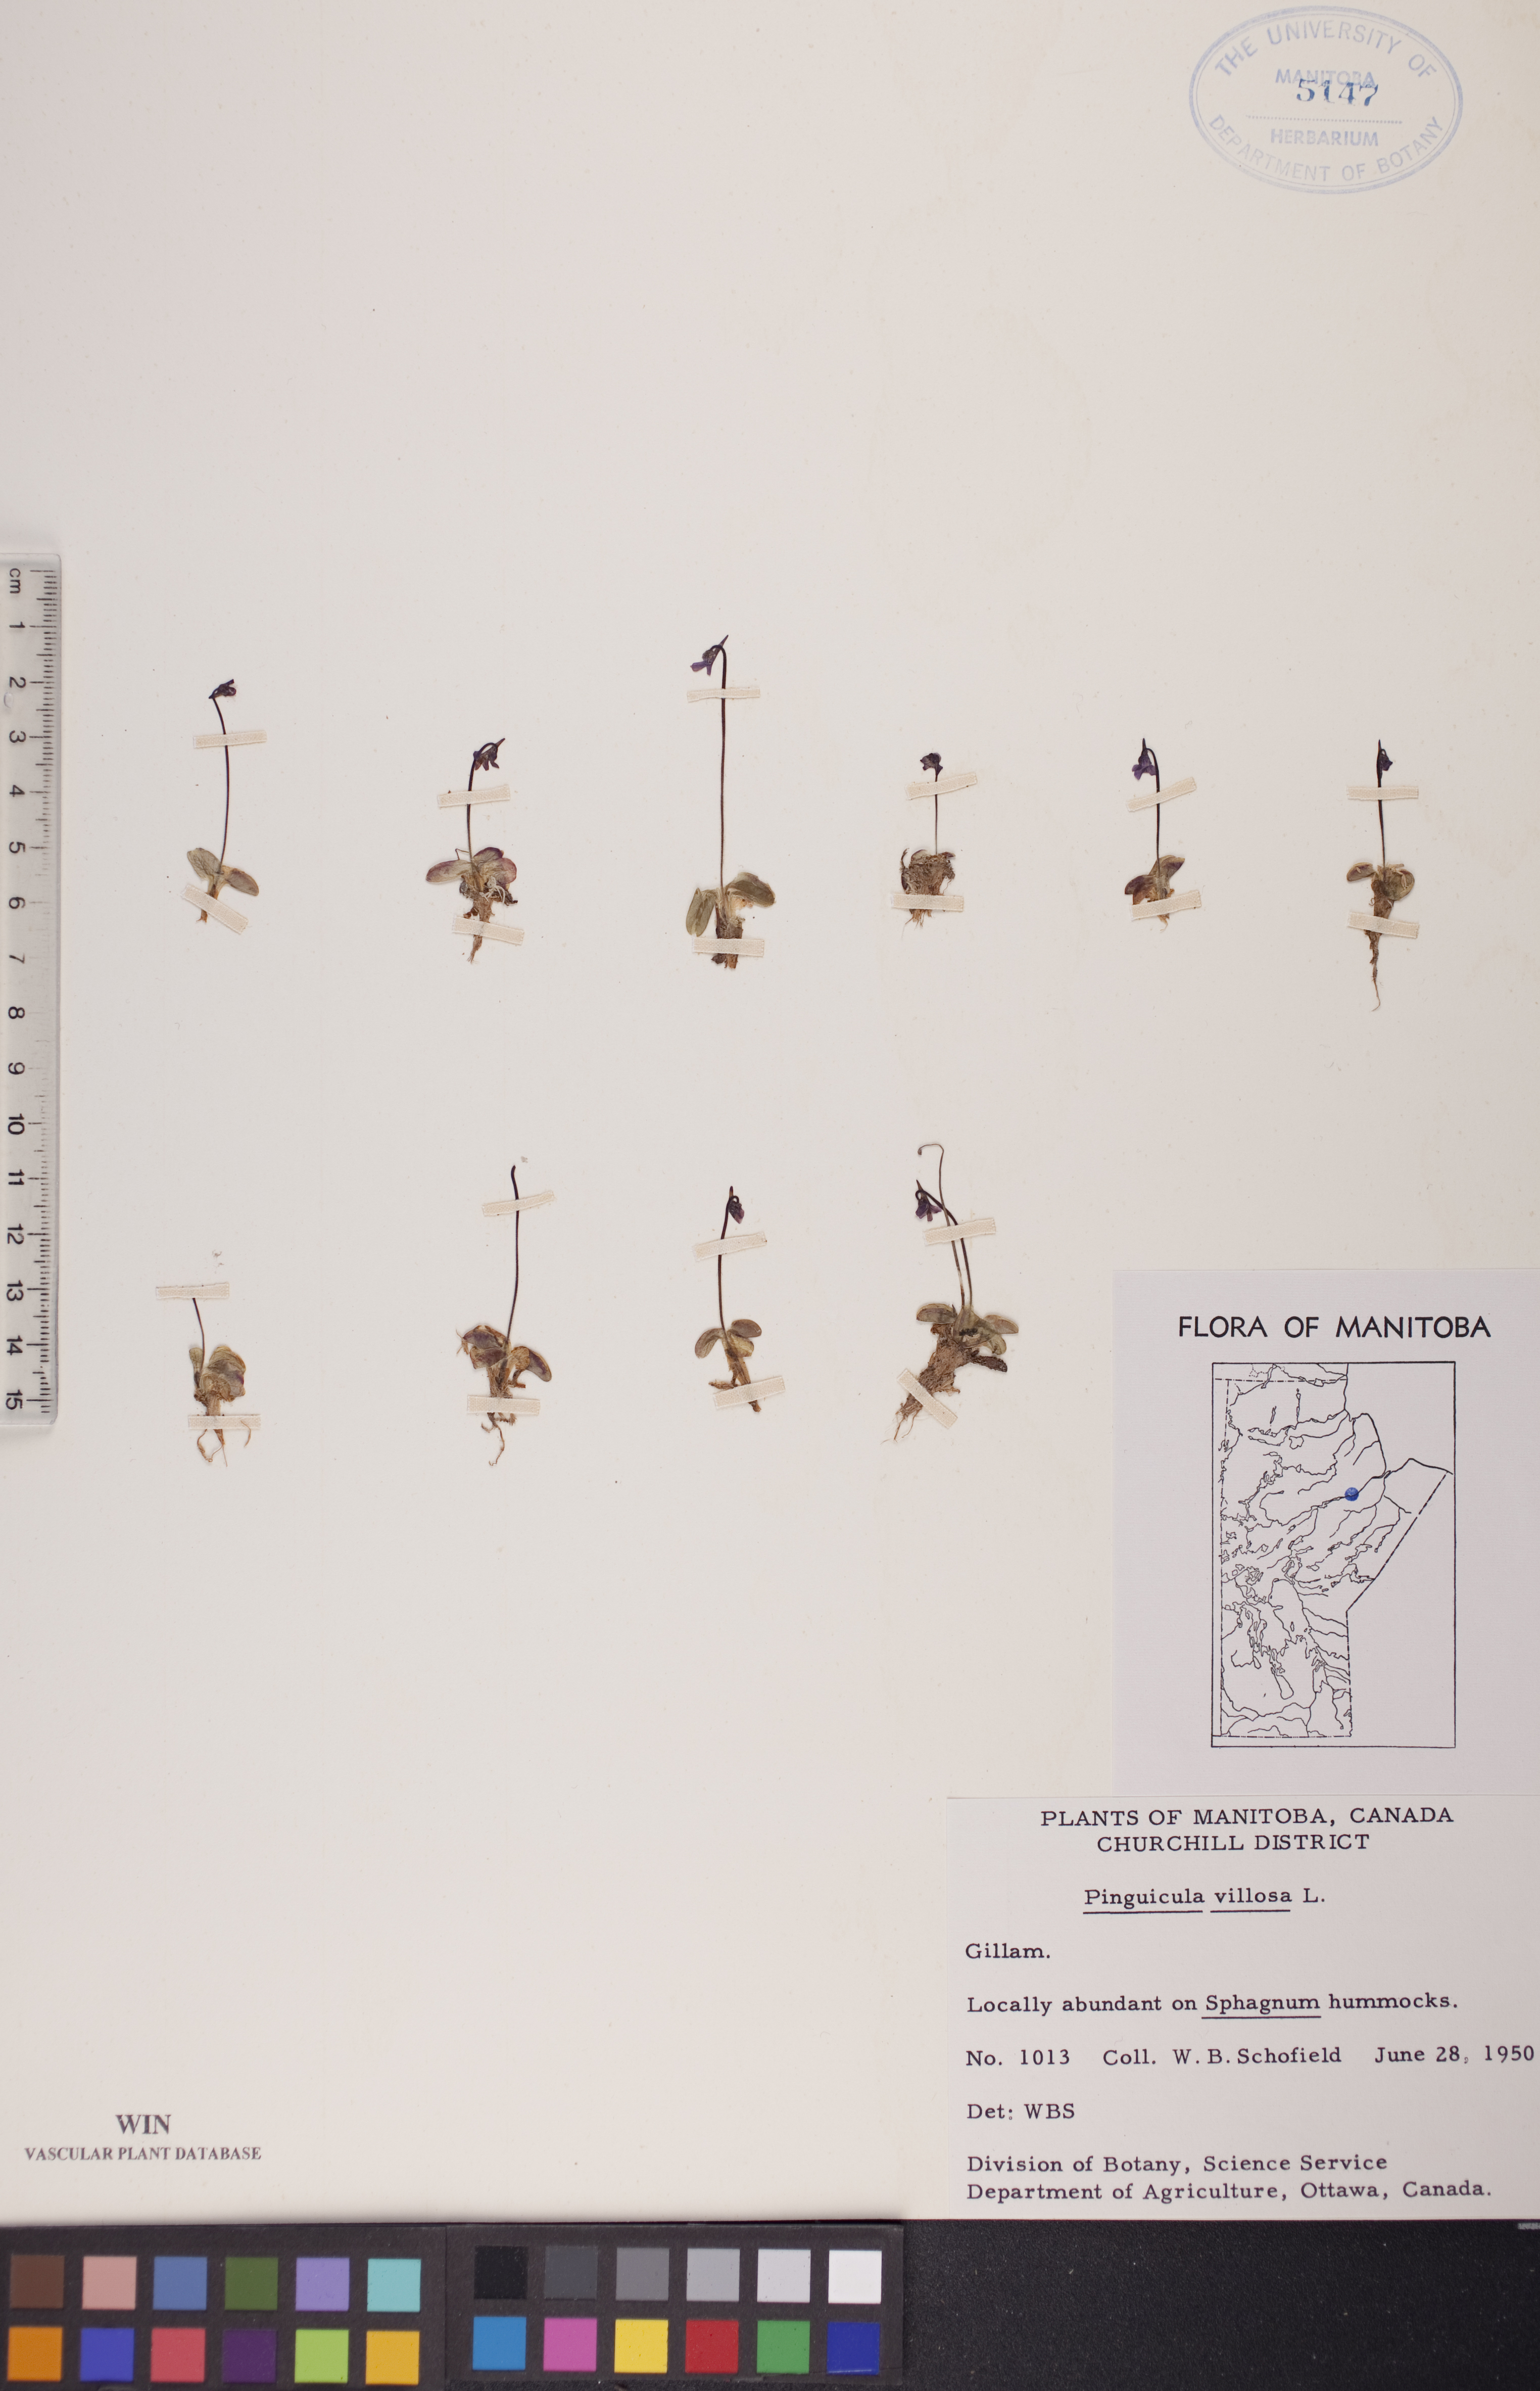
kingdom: Plantae
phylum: Tracheophyta
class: Magnoliopsida
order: Lamiales
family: Lentibulariaceae
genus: Pinguicula
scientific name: Pinguicula villosa
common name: Hairy butterwort
